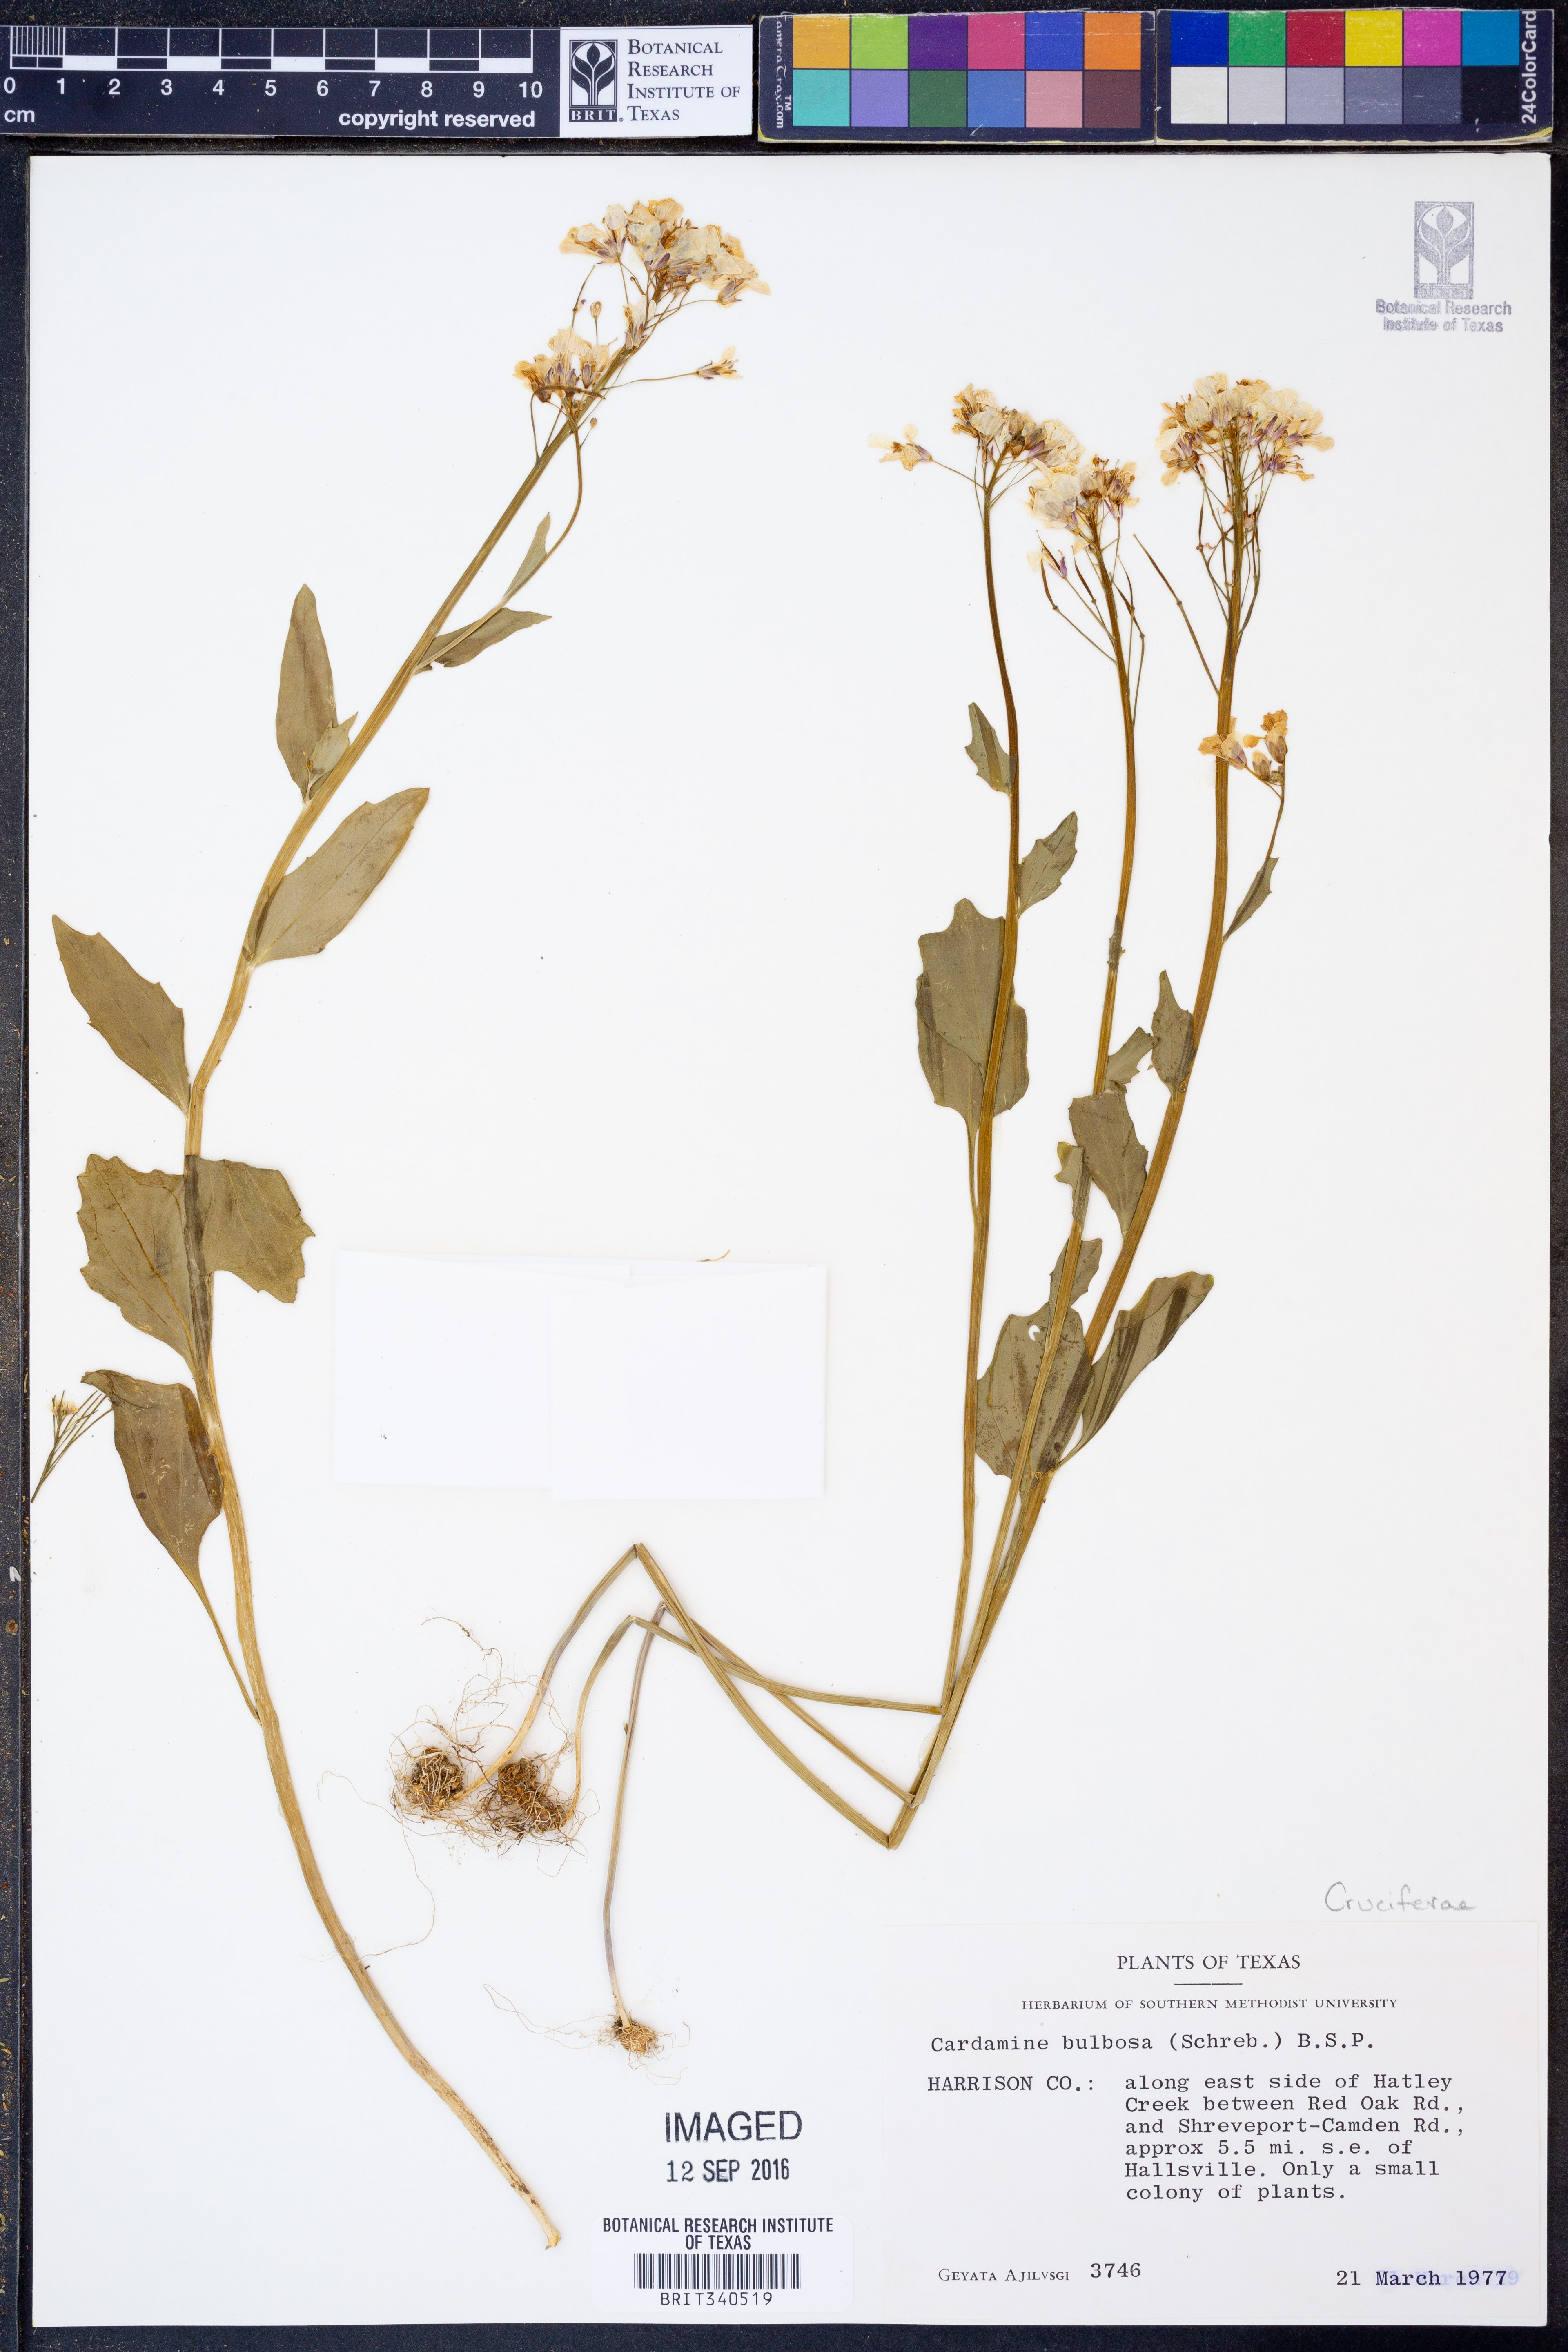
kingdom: Plantae
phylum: Tracheophyta
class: Magnoliopsida
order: Brassicales
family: Brassicaceae
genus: Cardamine
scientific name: Cardamine bulbosa
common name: Spring cress
